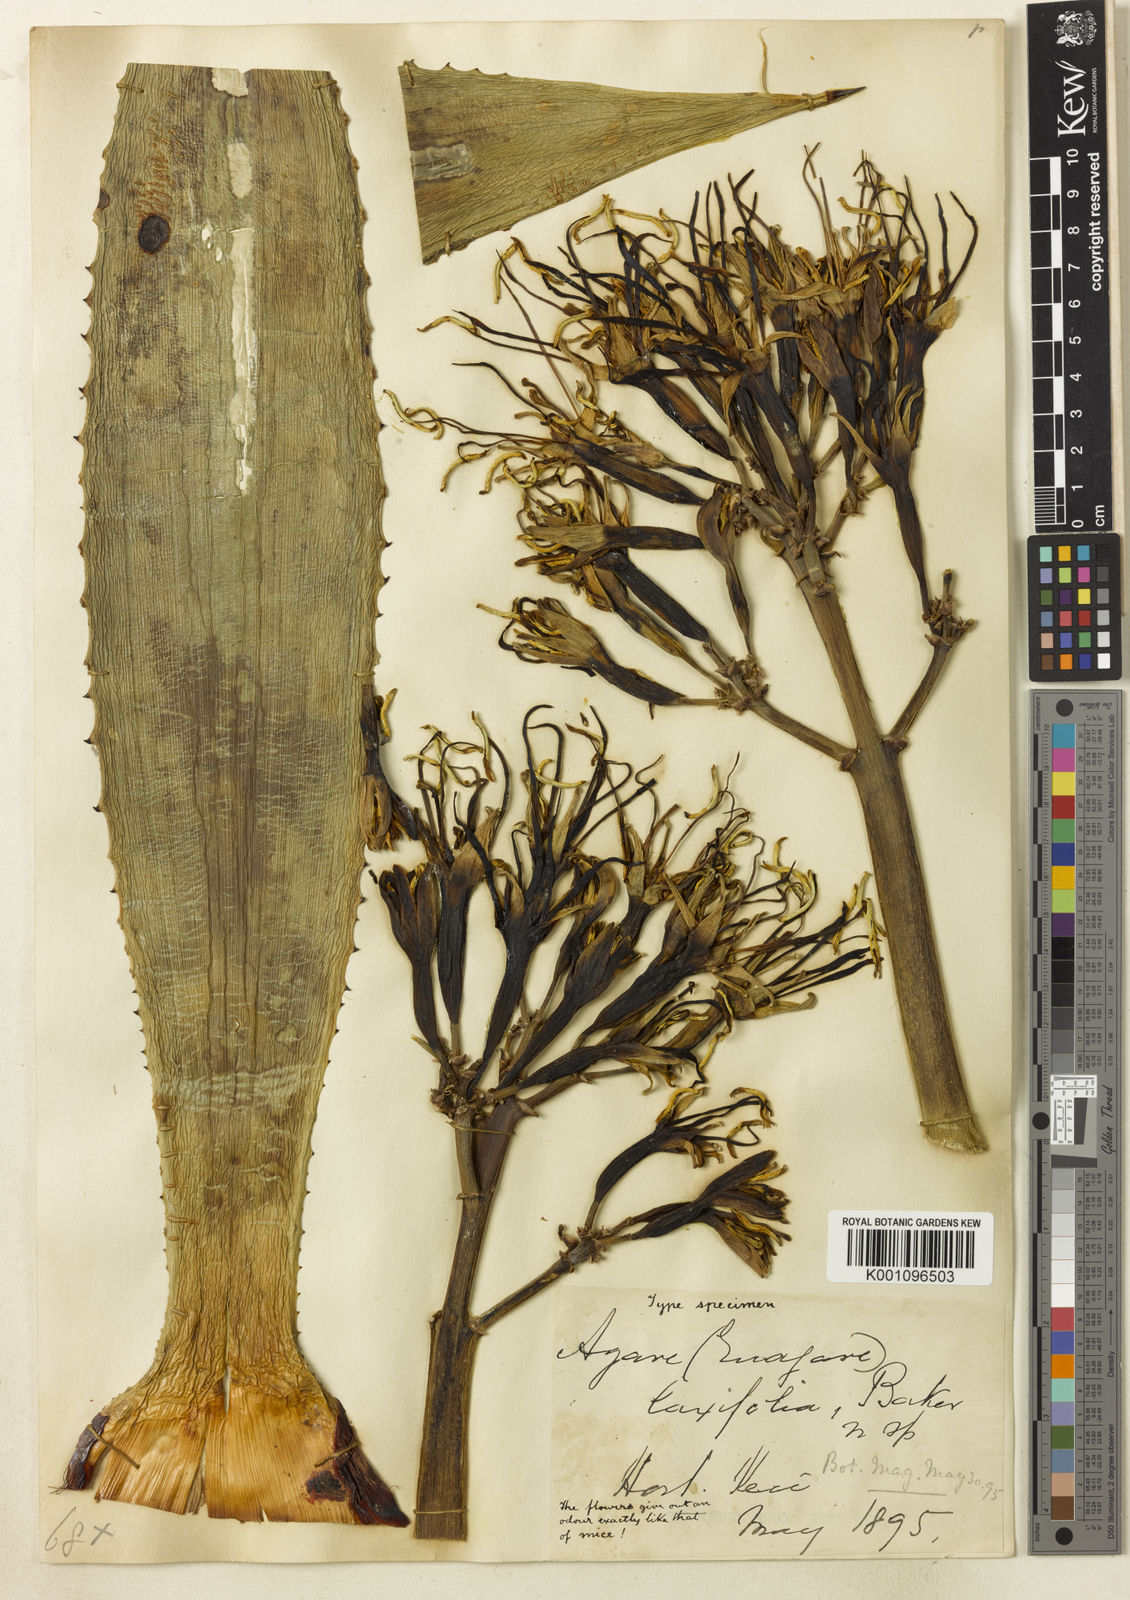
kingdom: Plantae
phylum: Tracheophyta
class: Liliopsida
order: Asparagales
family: Asparagaceae
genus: Agave
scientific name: Agave decipiens
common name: False sisal
